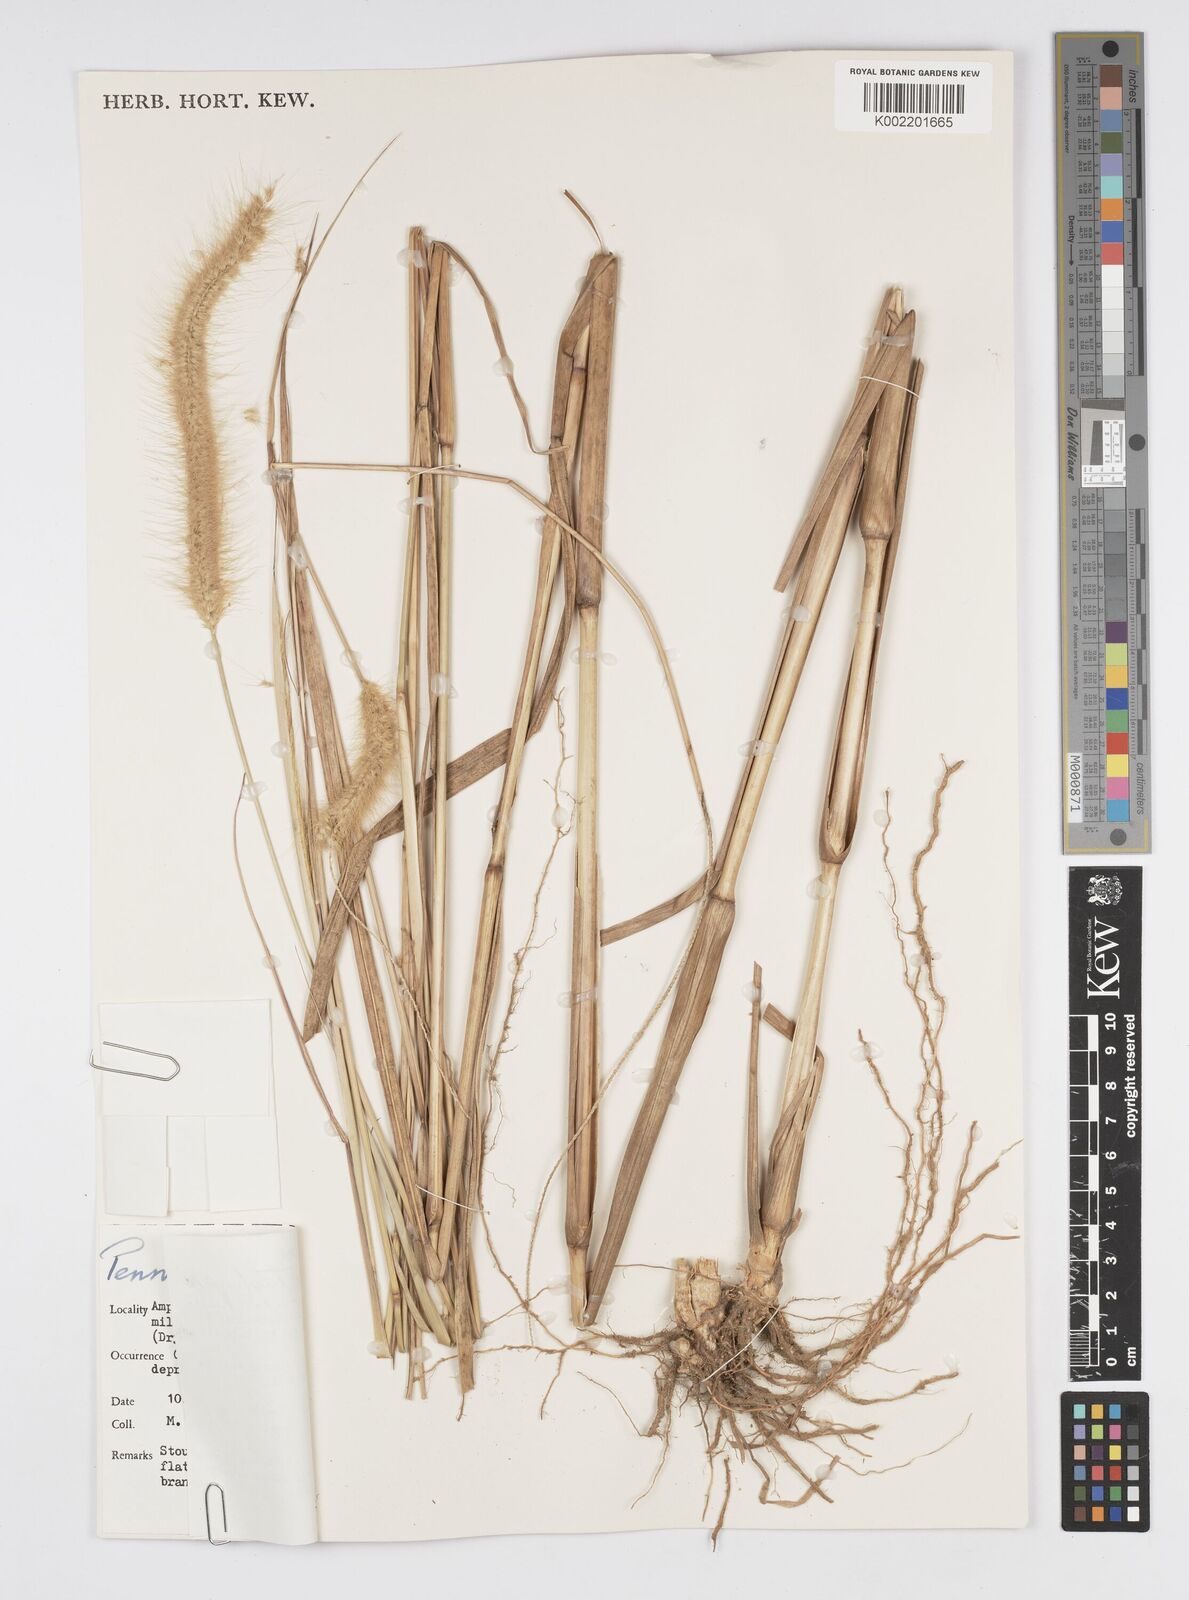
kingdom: Plantae
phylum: Tracheophyta
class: Liliopsida
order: Poales
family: Poaceae
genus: Setaria
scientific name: Setaria parviflora
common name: Knotroot bristle-grass
